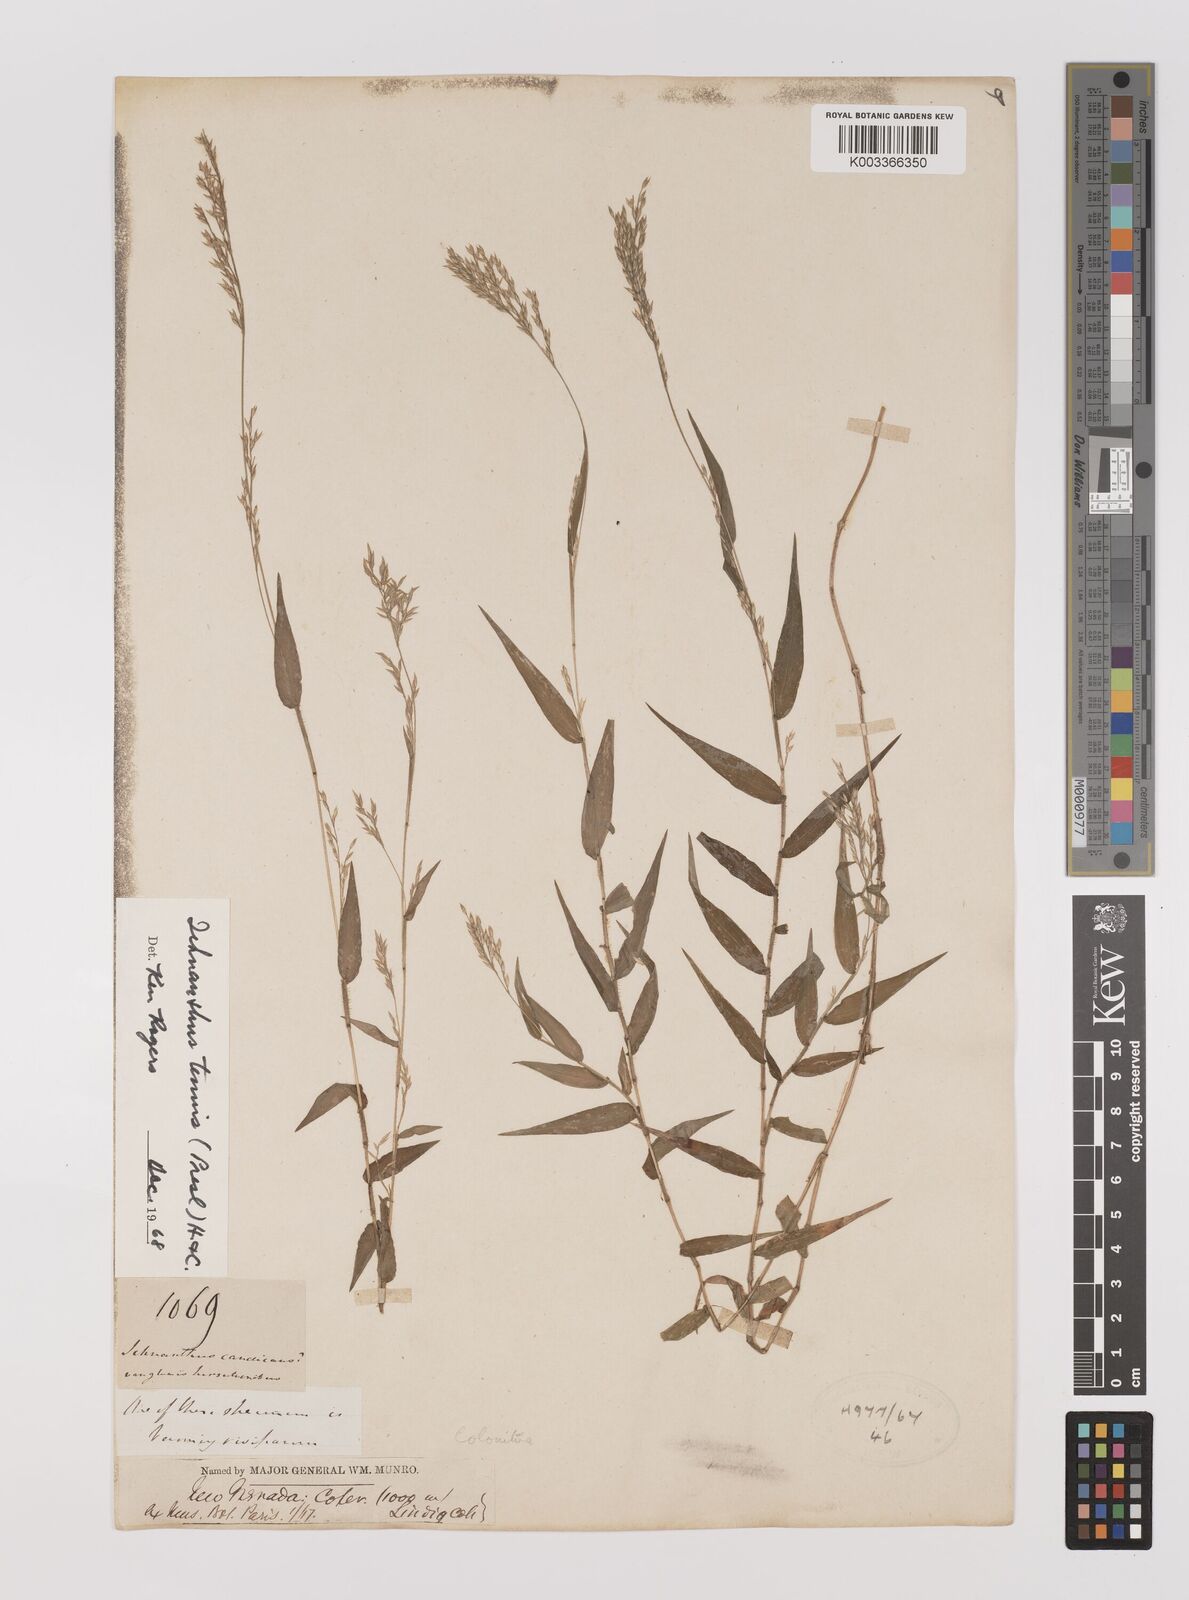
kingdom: Plantae
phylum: Tracheophyta
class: Liliopsida
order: Poales
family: Poaceae
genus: Ichnanthus
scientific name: Ichnanthus tenuis
